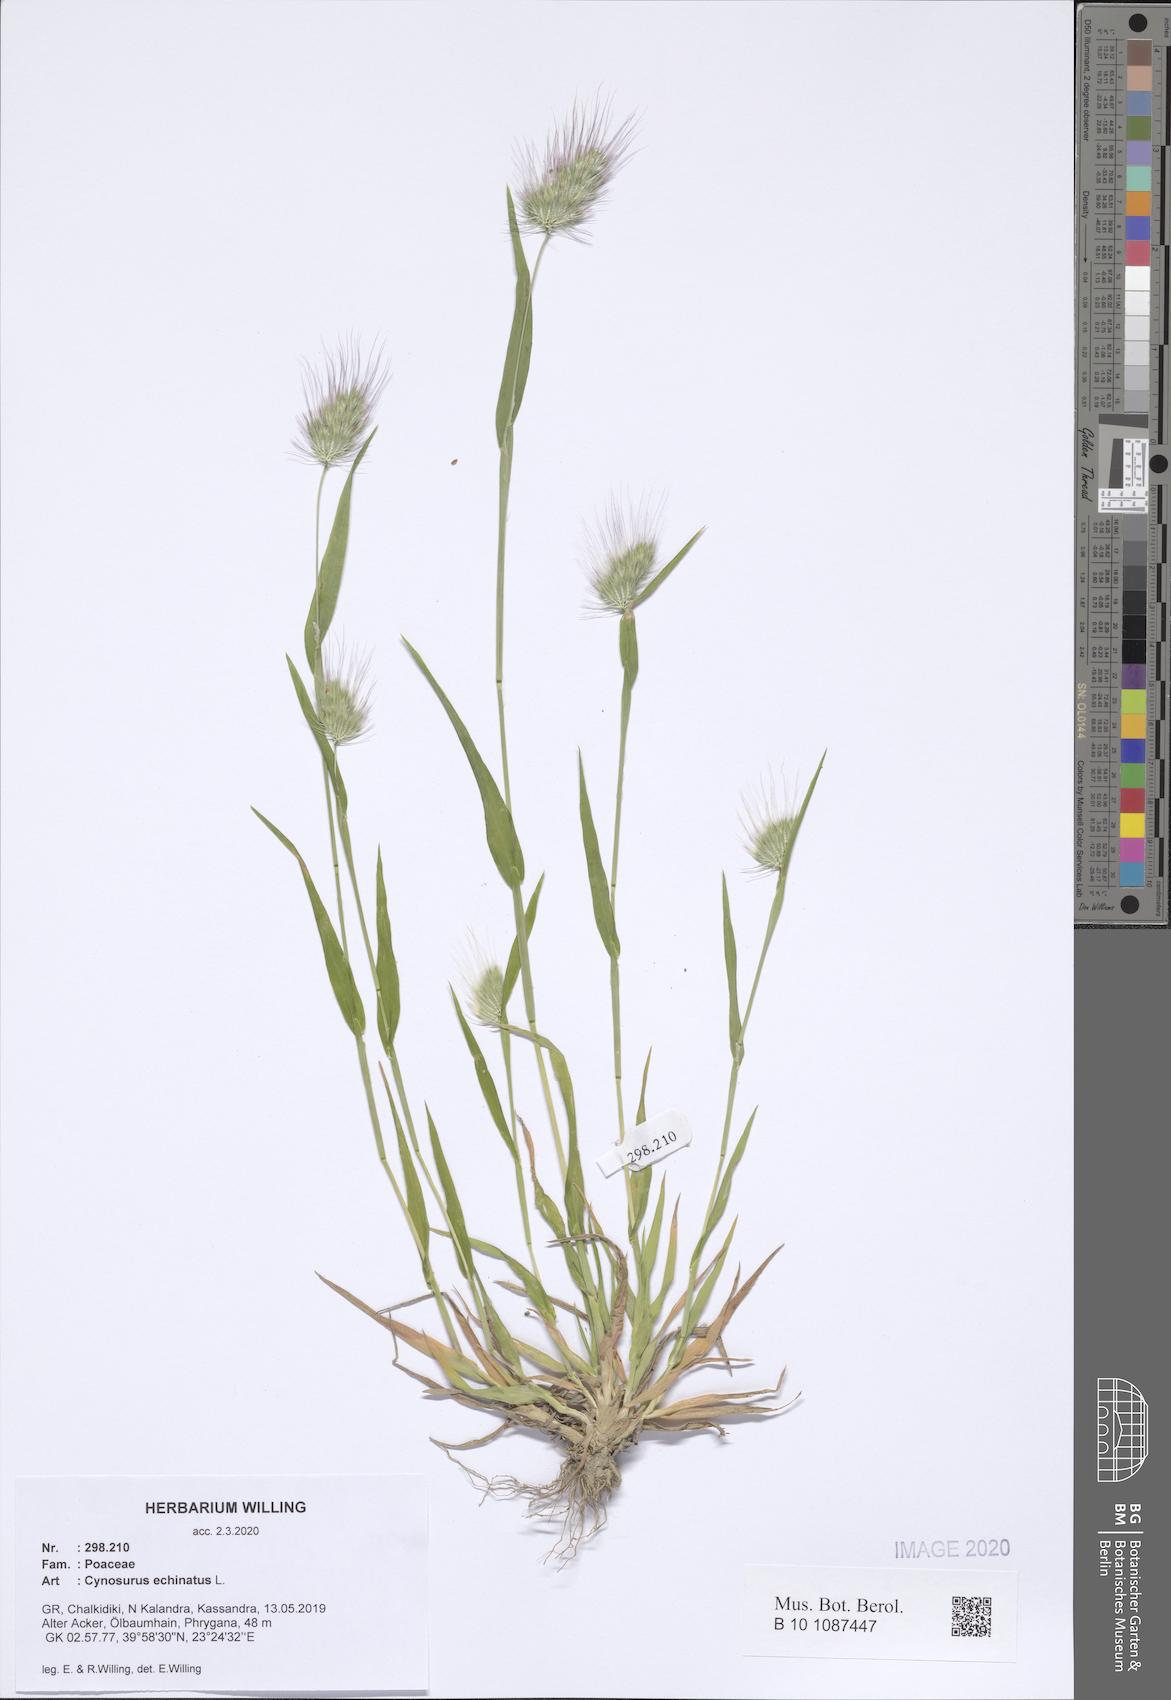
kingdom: Plantae
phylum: Tracheophyta
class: Liliopsida
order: Poales
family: Poaceae
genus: Cynosurus
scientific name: Cynosurus echinatus
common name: Rough dog's-tail
